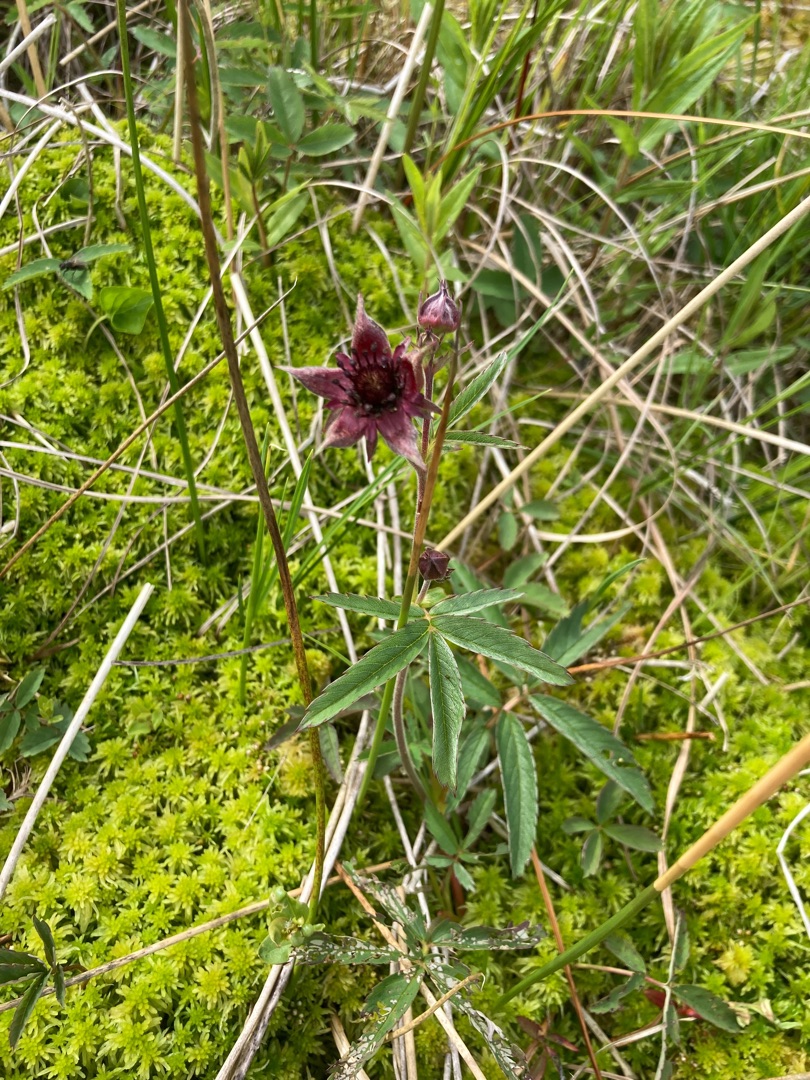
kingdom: Plantae
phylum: Tracheophyta
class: Magnoliopsida
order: Rosales
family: Rosaceae
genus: Comarum
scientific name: Comarum palustre
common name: Kragefod
